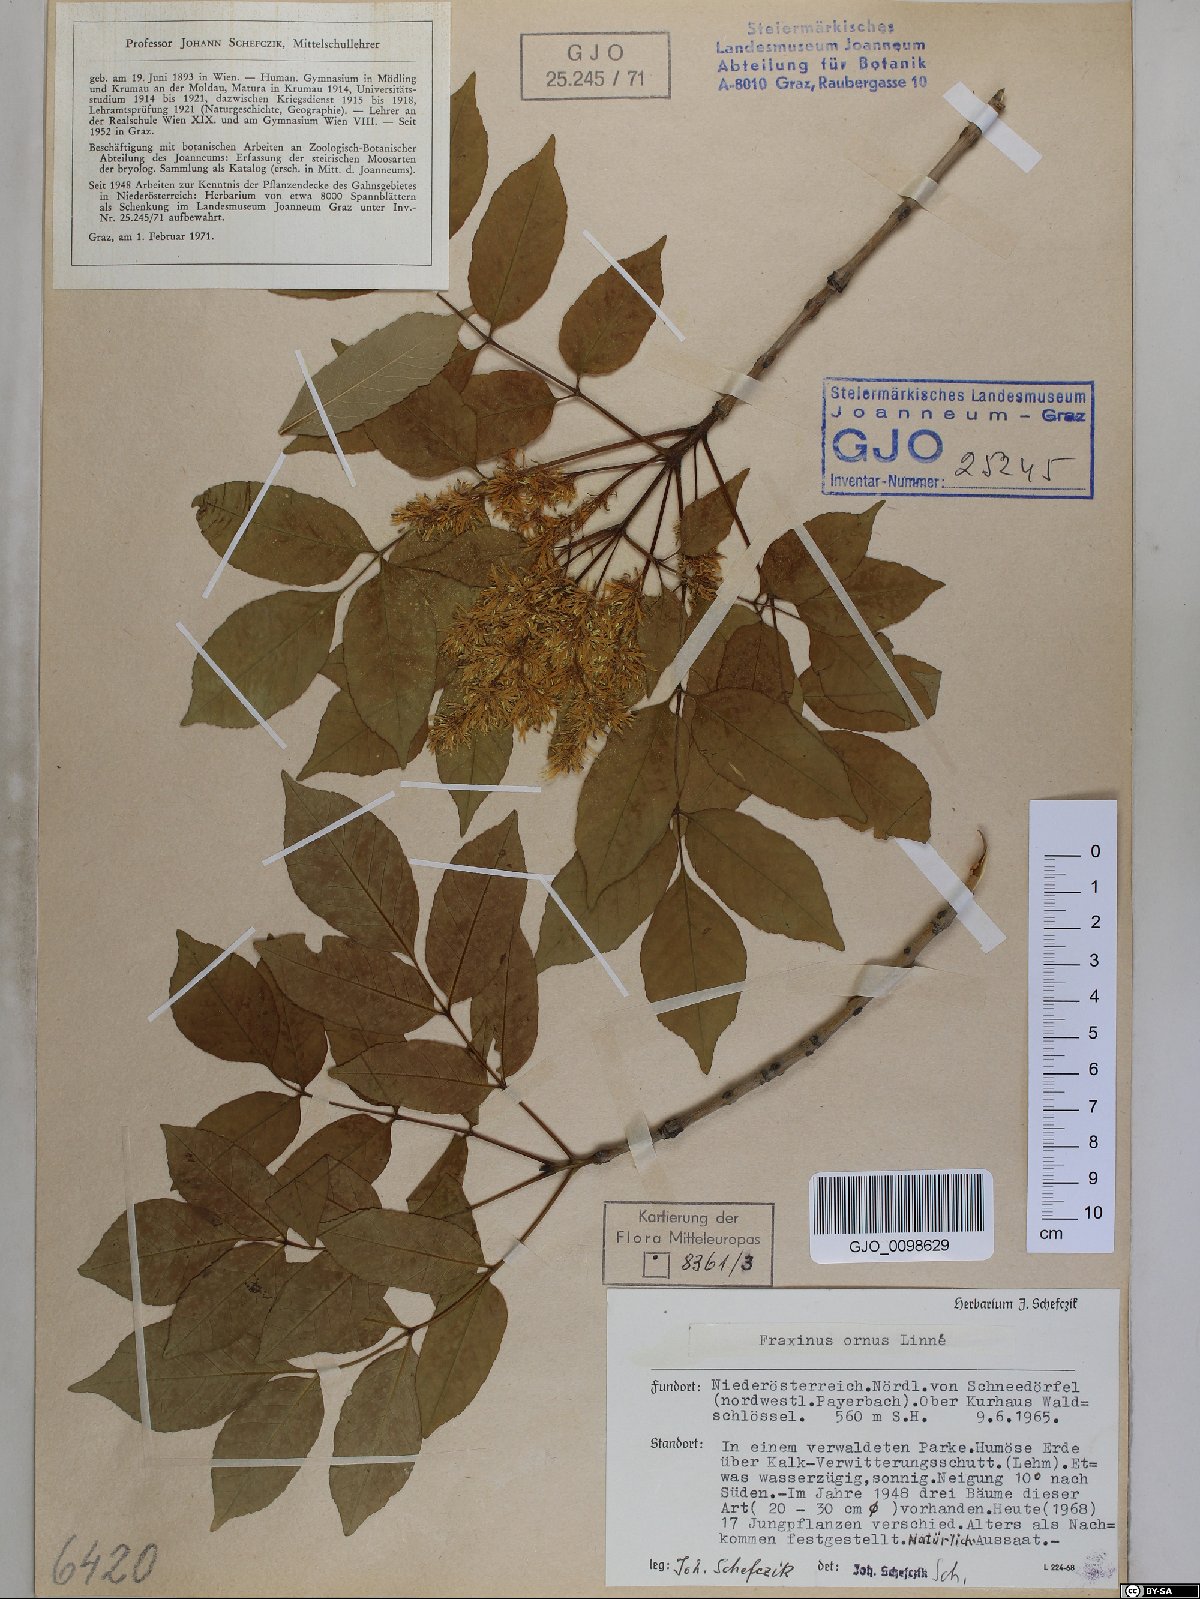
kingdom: Plantae
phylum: Tracheophyta
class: Magnoliopsida
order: Lamiales
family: Oleaceae
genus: Fraxinus
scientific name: Fraxinus ornus
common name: Manna ash
